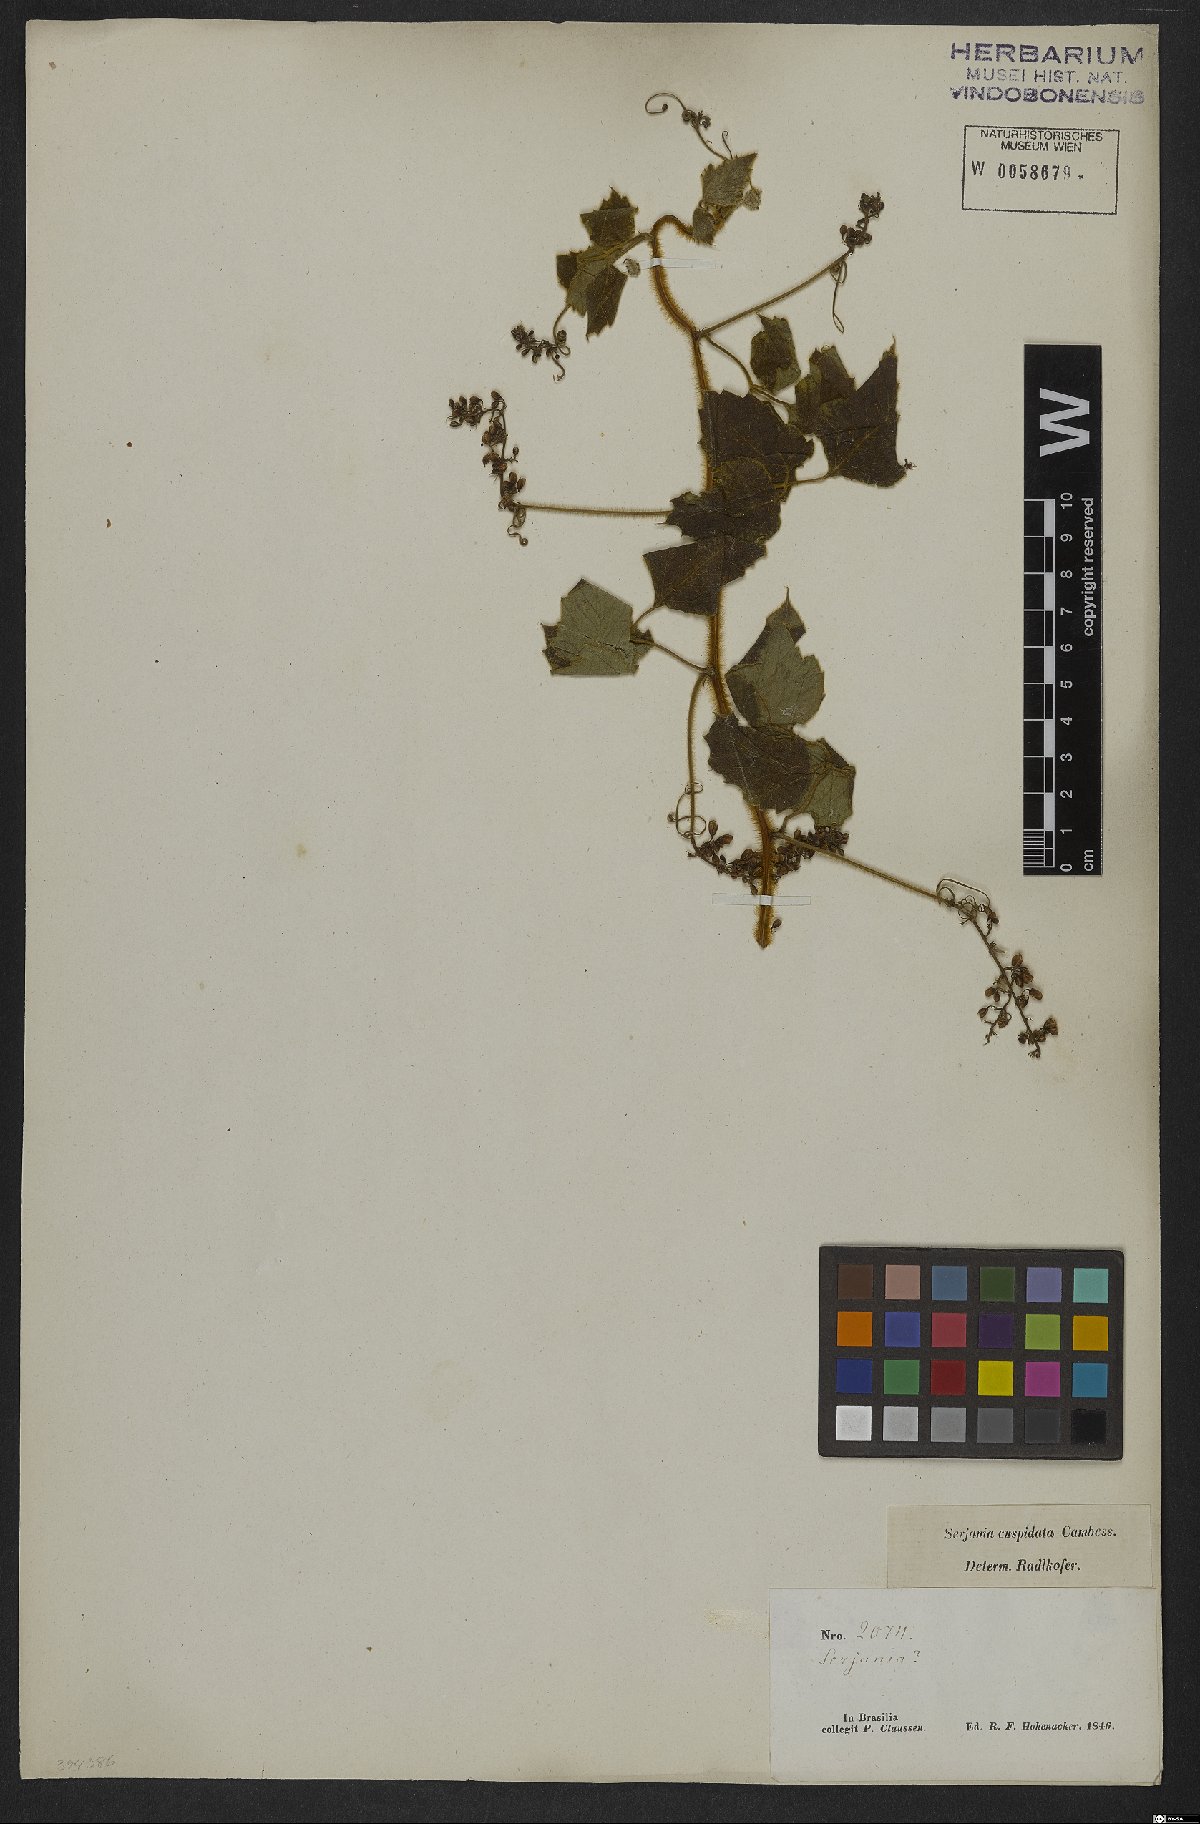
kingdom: Plantae
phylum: Tracheophyta
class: Magnoliopsida
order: Sapindales
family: Sapindaceae
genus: Serjania
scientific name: Serjania ferruginea
